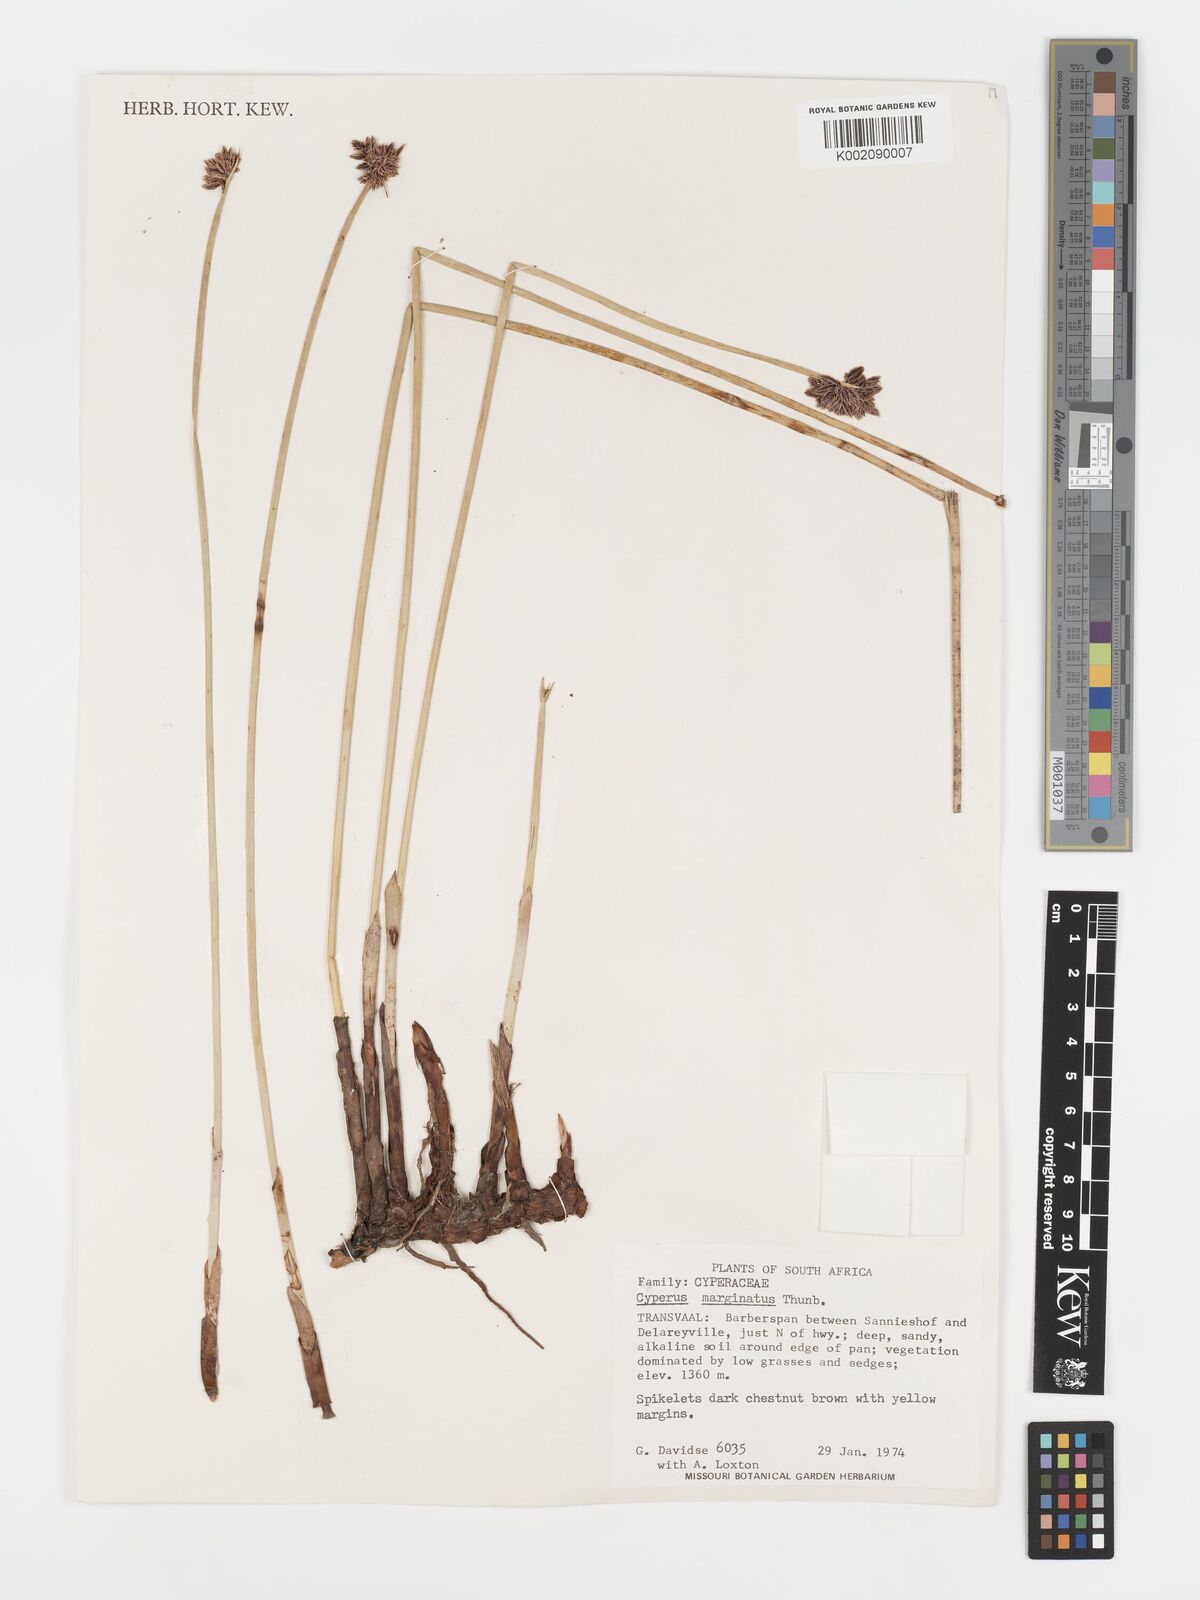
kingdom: Plantae
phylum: Tracheophyta
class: Liliopsida
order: Poales
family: Cyperaceae
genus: Cyperus
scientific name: Cyperus marginatus
